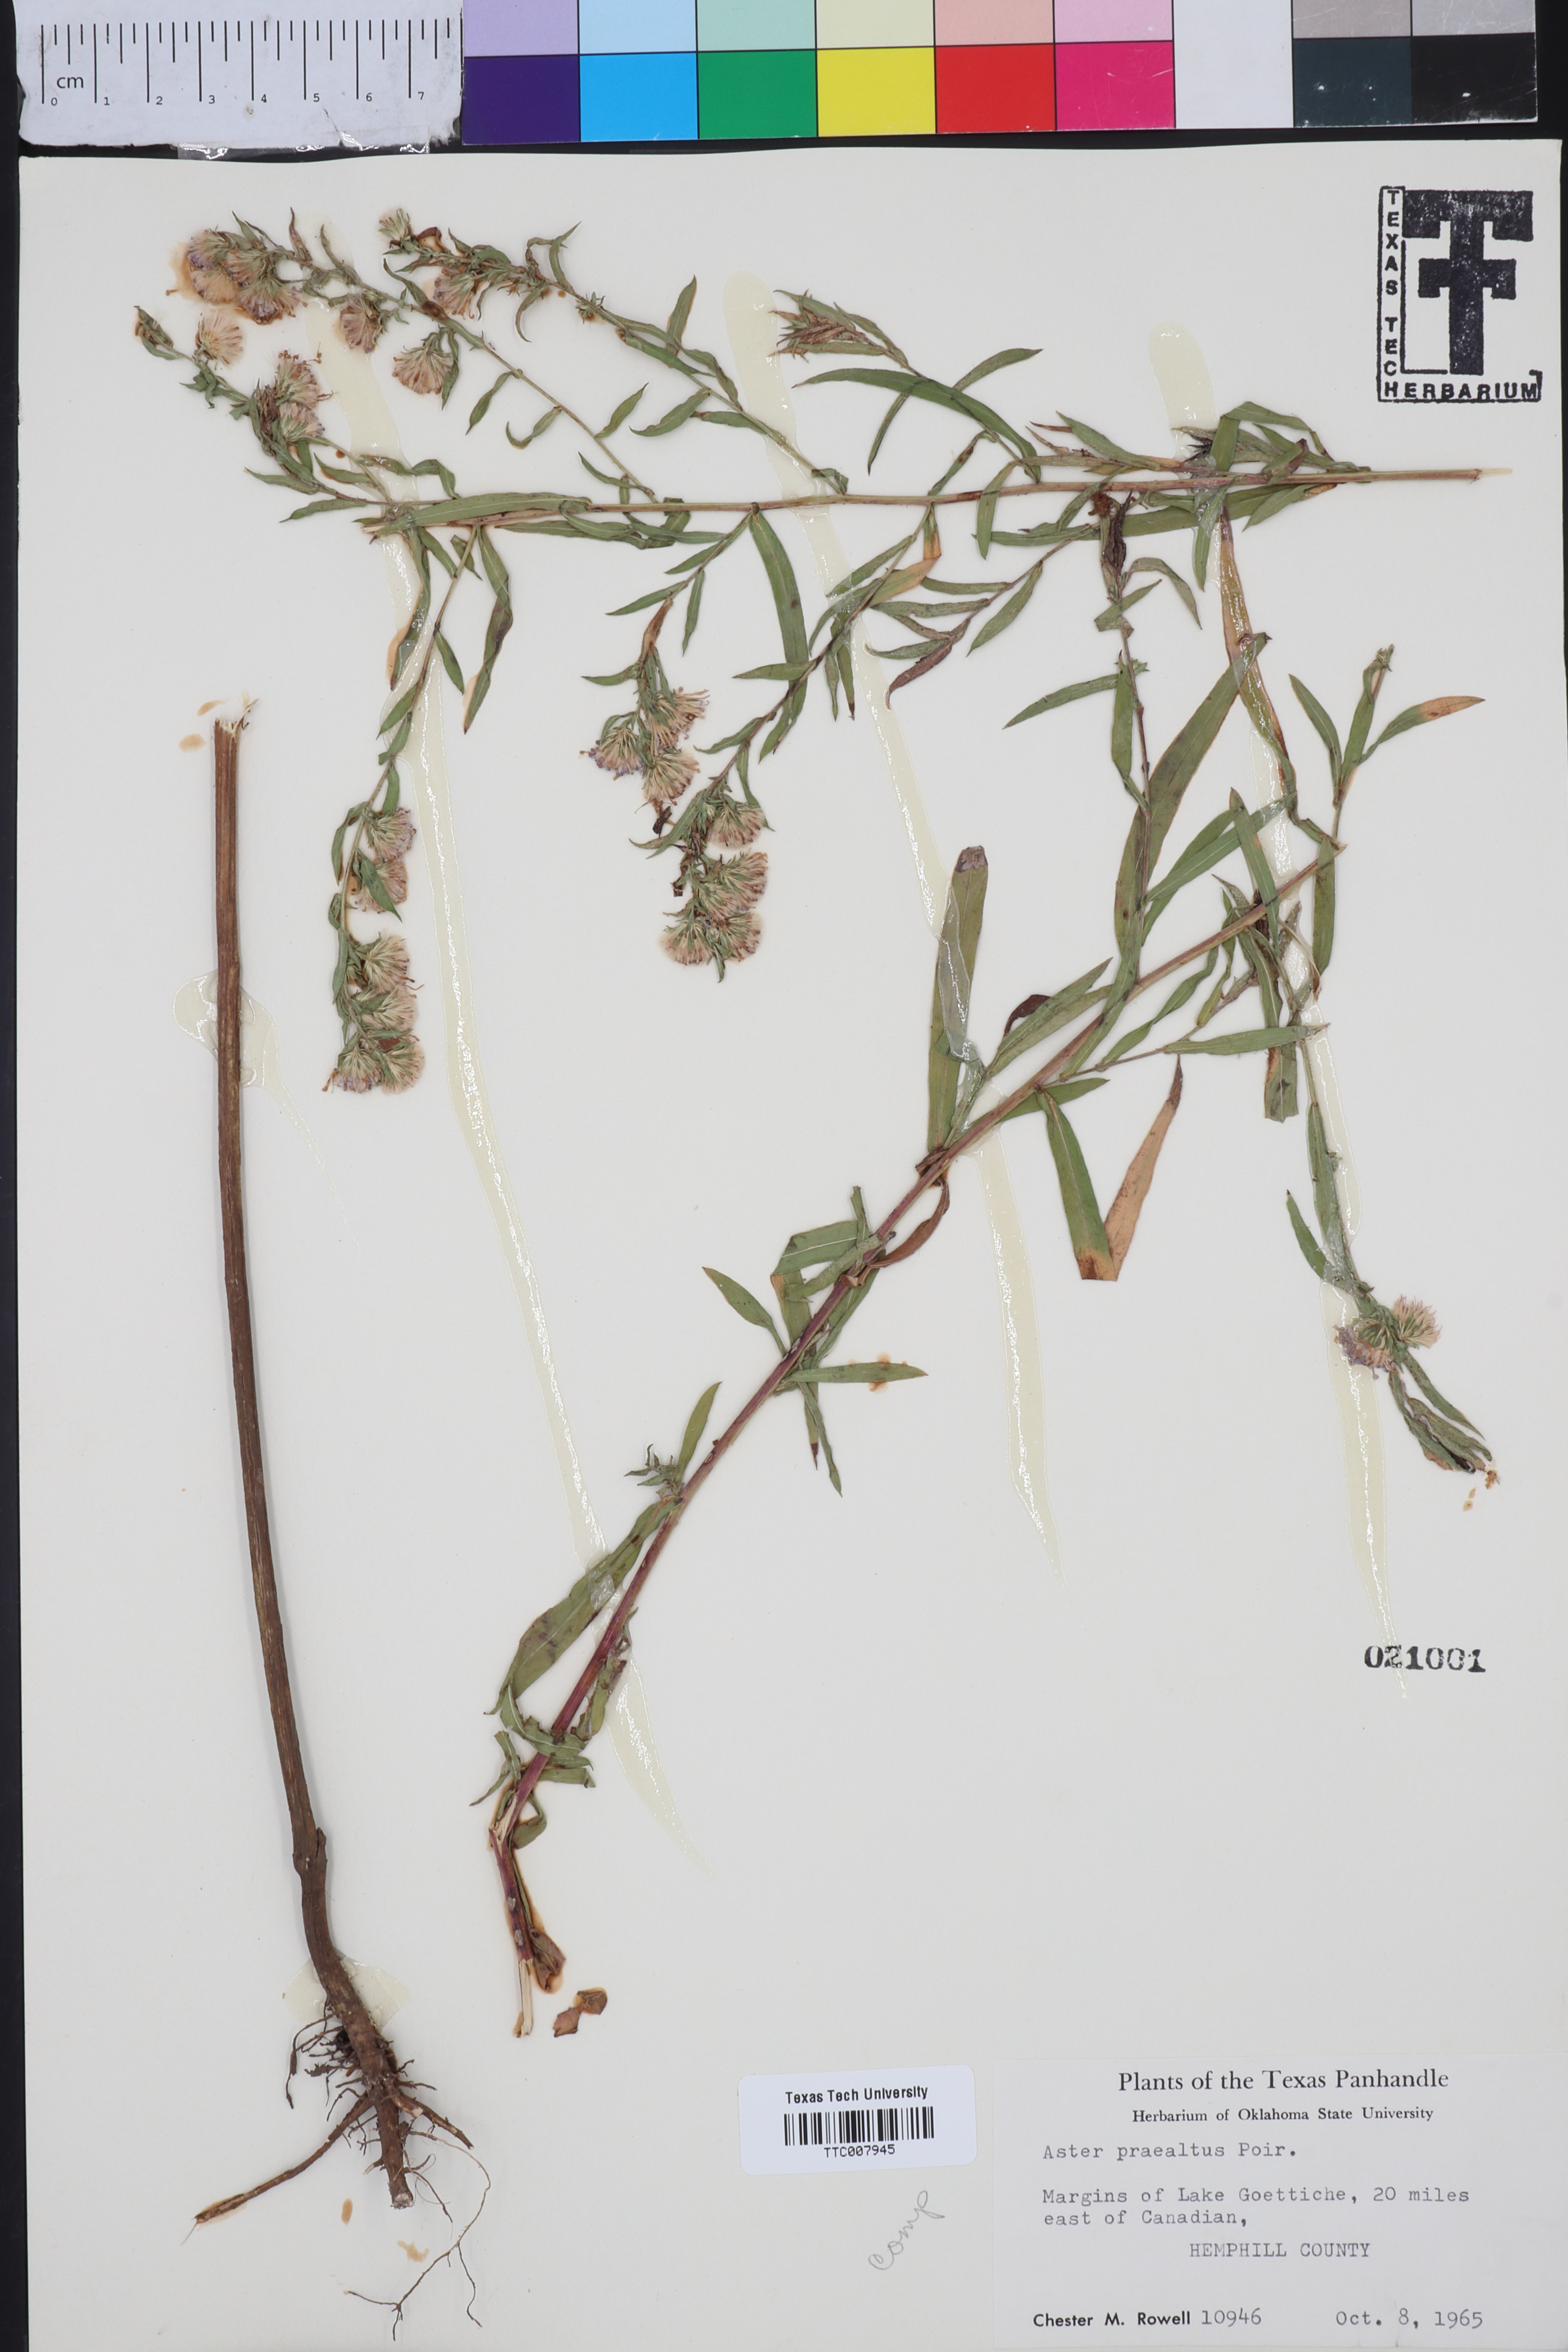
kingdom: Plantae
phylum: Tracheophyta
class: Magnoliopsida
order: Asterales
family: Asteraceae
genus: Symphyotrichum
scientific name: Symphyotrichum praealtum
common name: Willow aster
